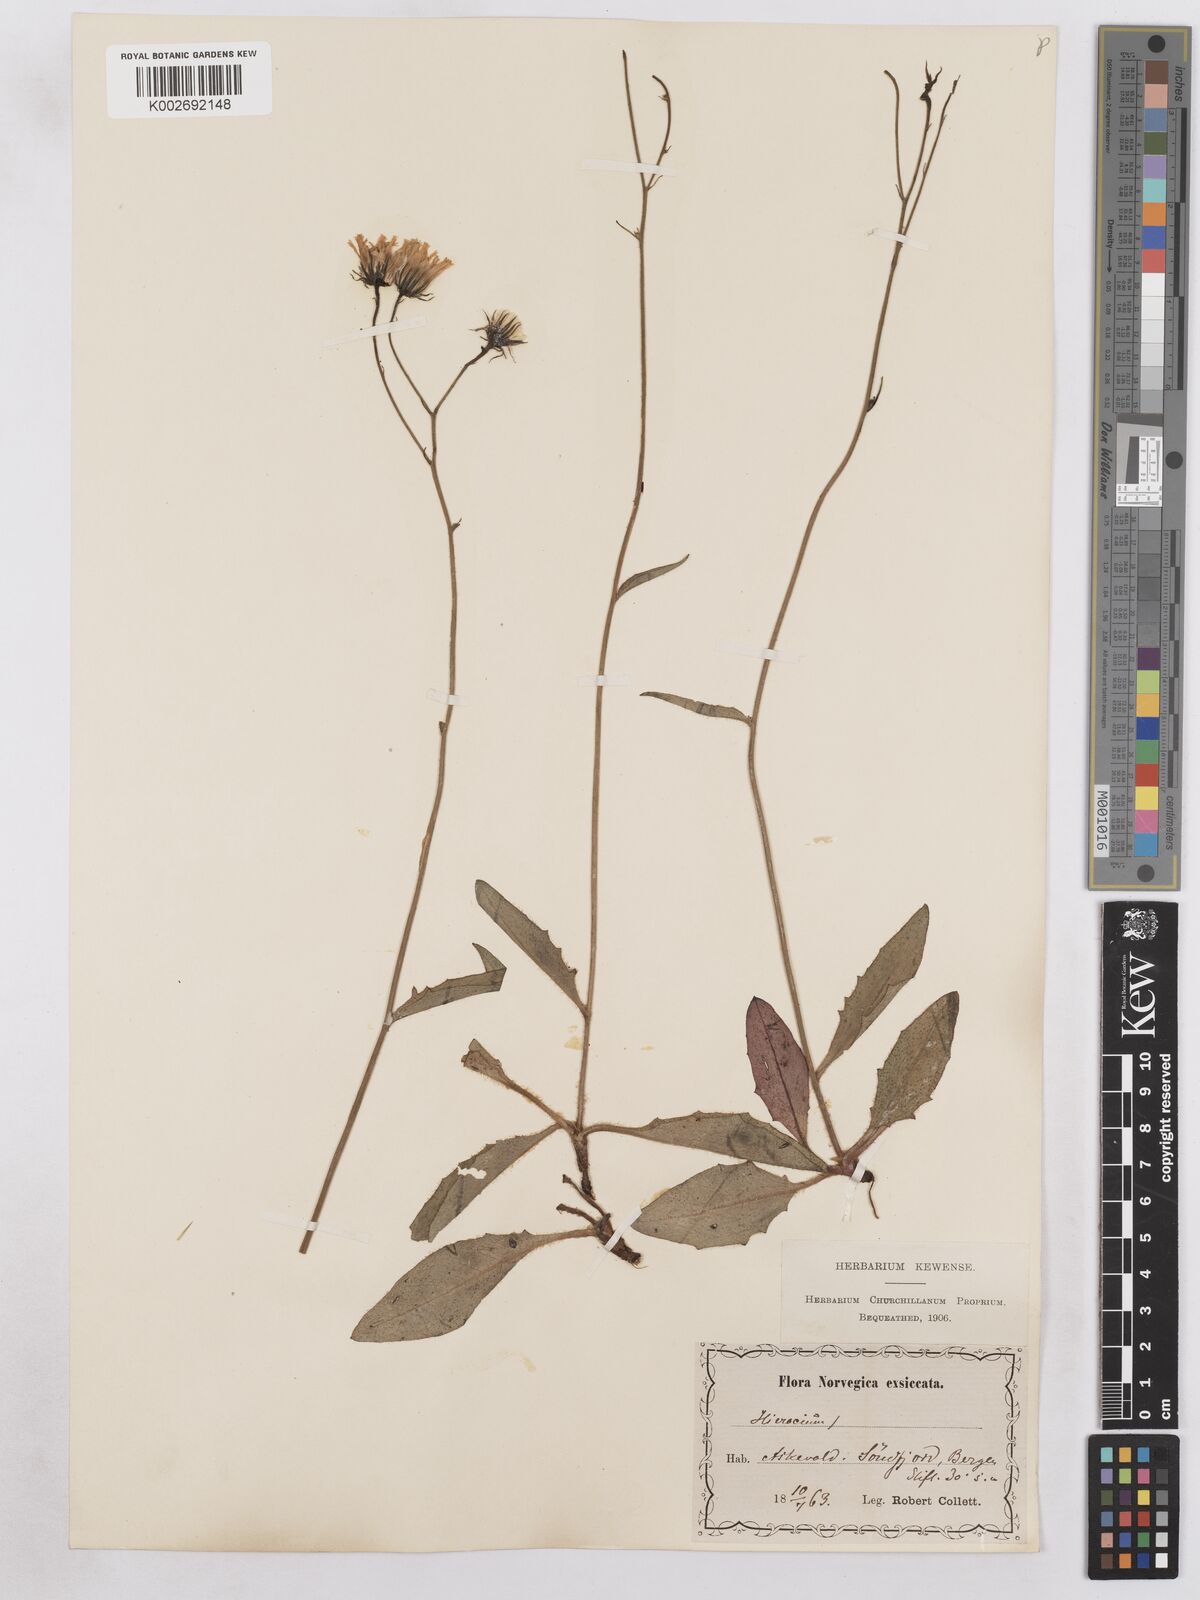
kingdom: Plantae
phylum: Tracheophyta
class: Magnoliopsida
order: Asterales
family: Asteraceae
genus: Hieracium
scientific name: Hieracium diaphanoides
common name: Fine-bracted hawkweed
